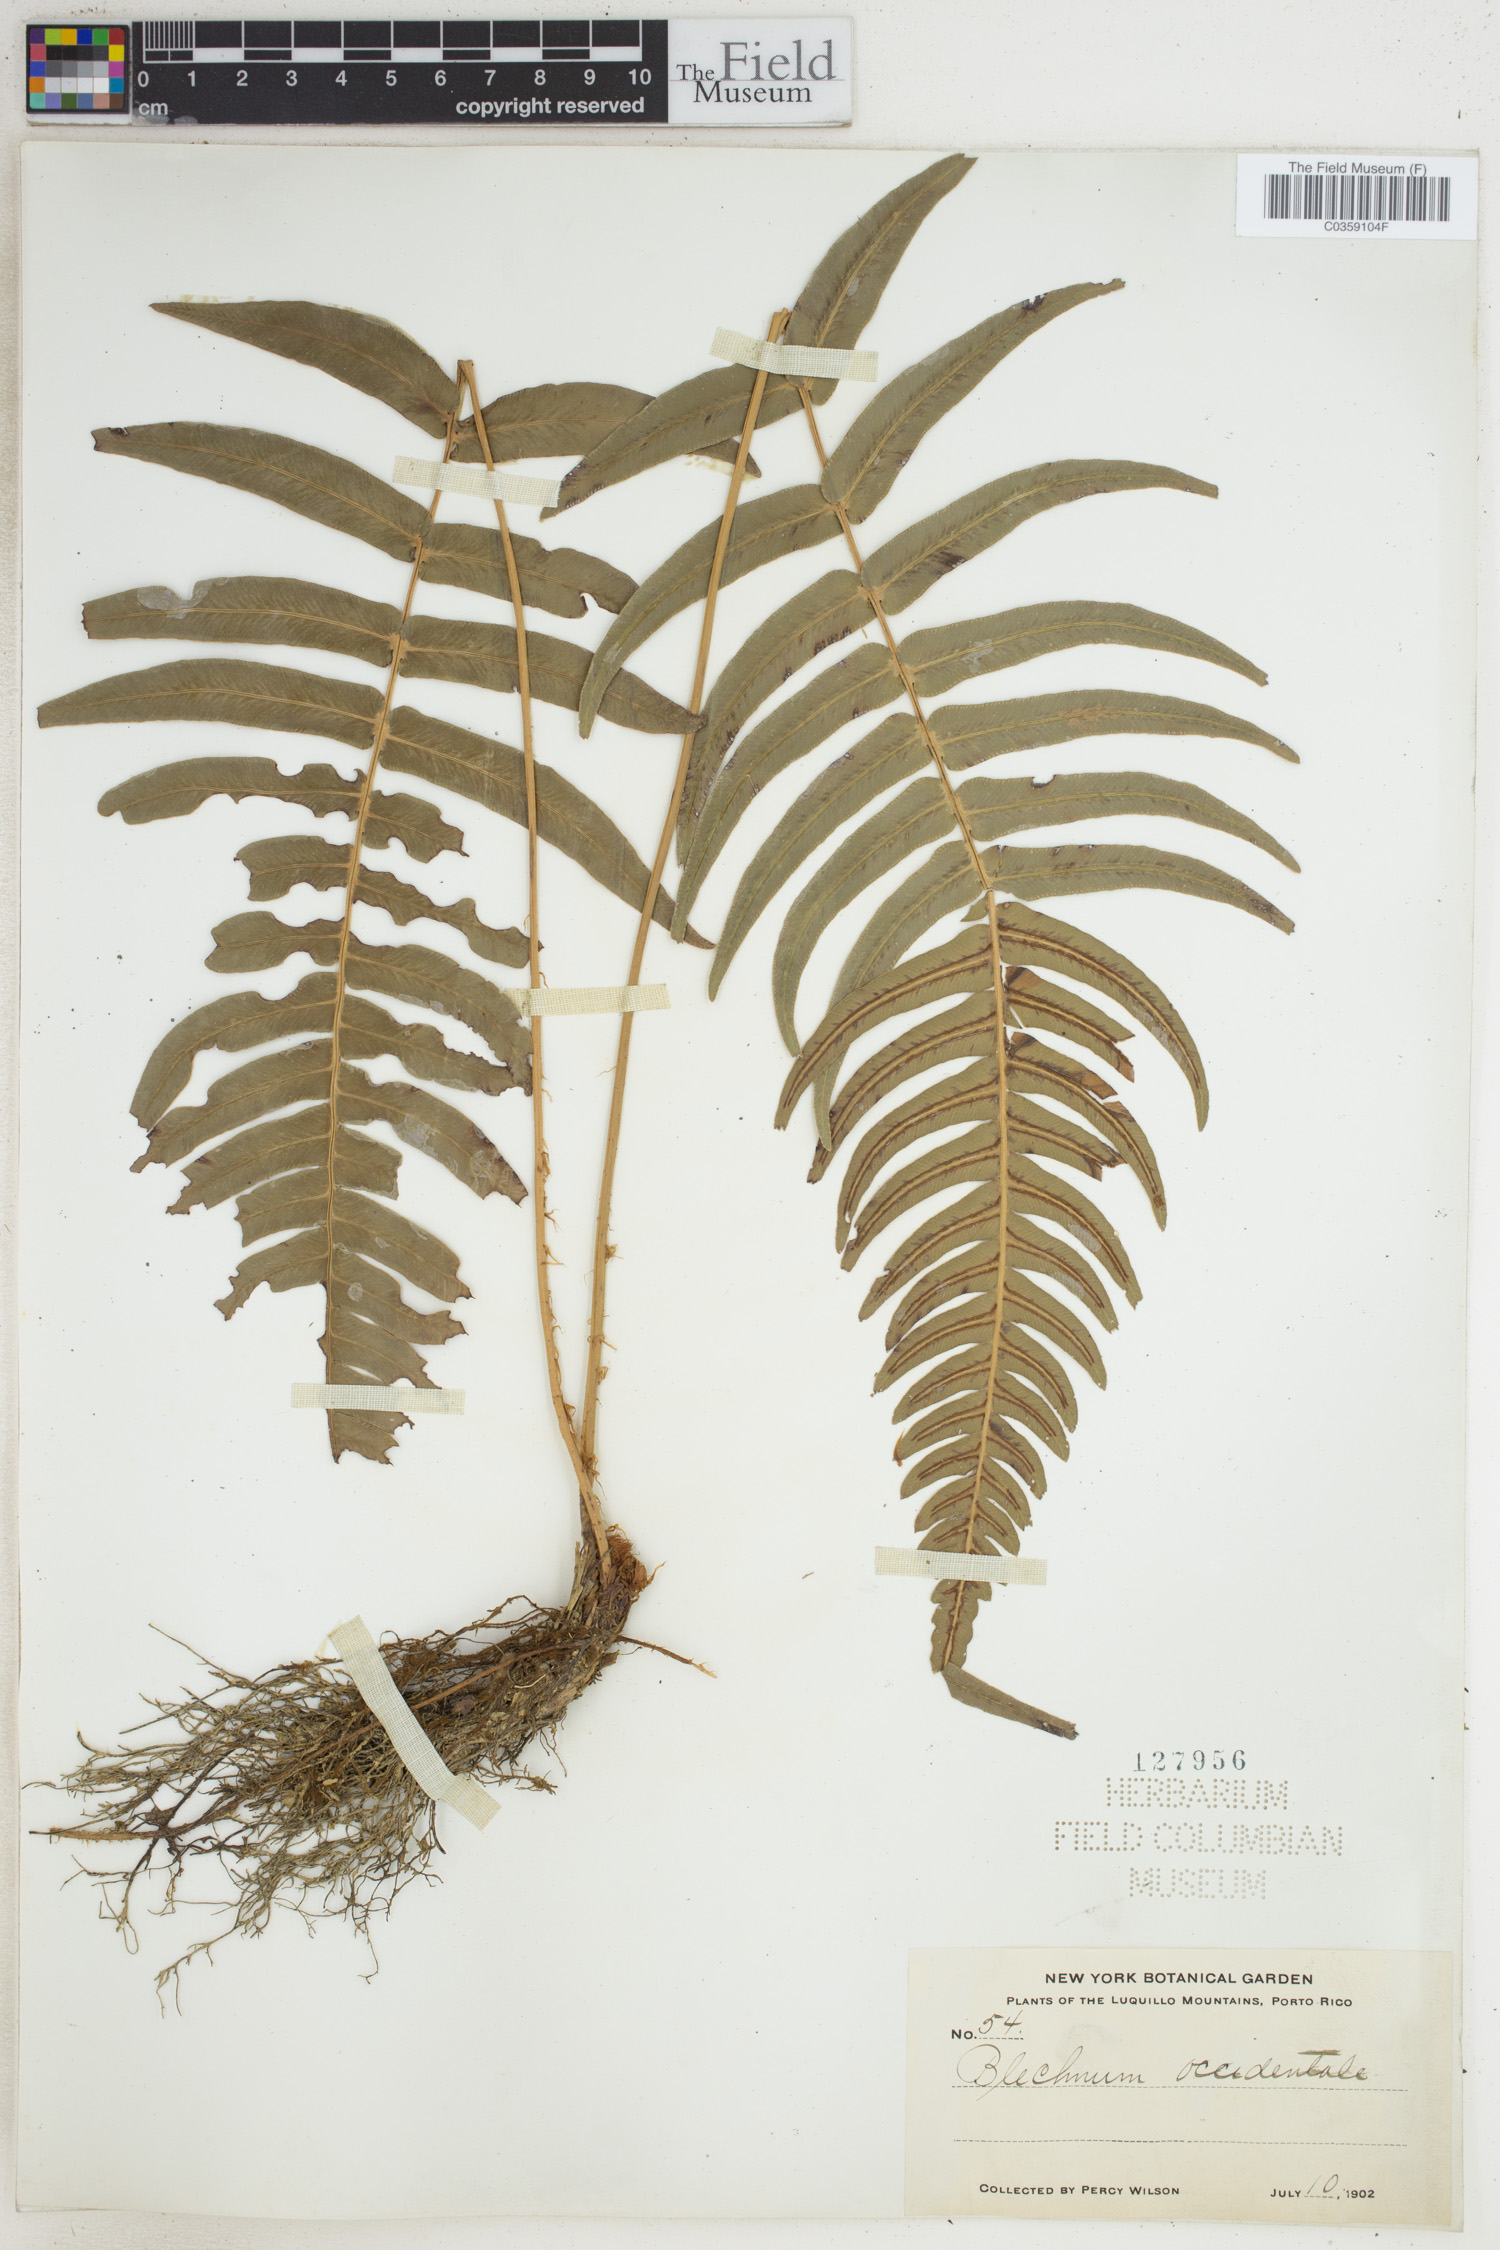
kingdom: Plantae
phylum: Tracheophyta
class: Polypodiopsida
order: Polypodiales
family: Blechnaceae
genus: Blechnum
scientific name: Blechnum occidentale
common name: Hammock fern
